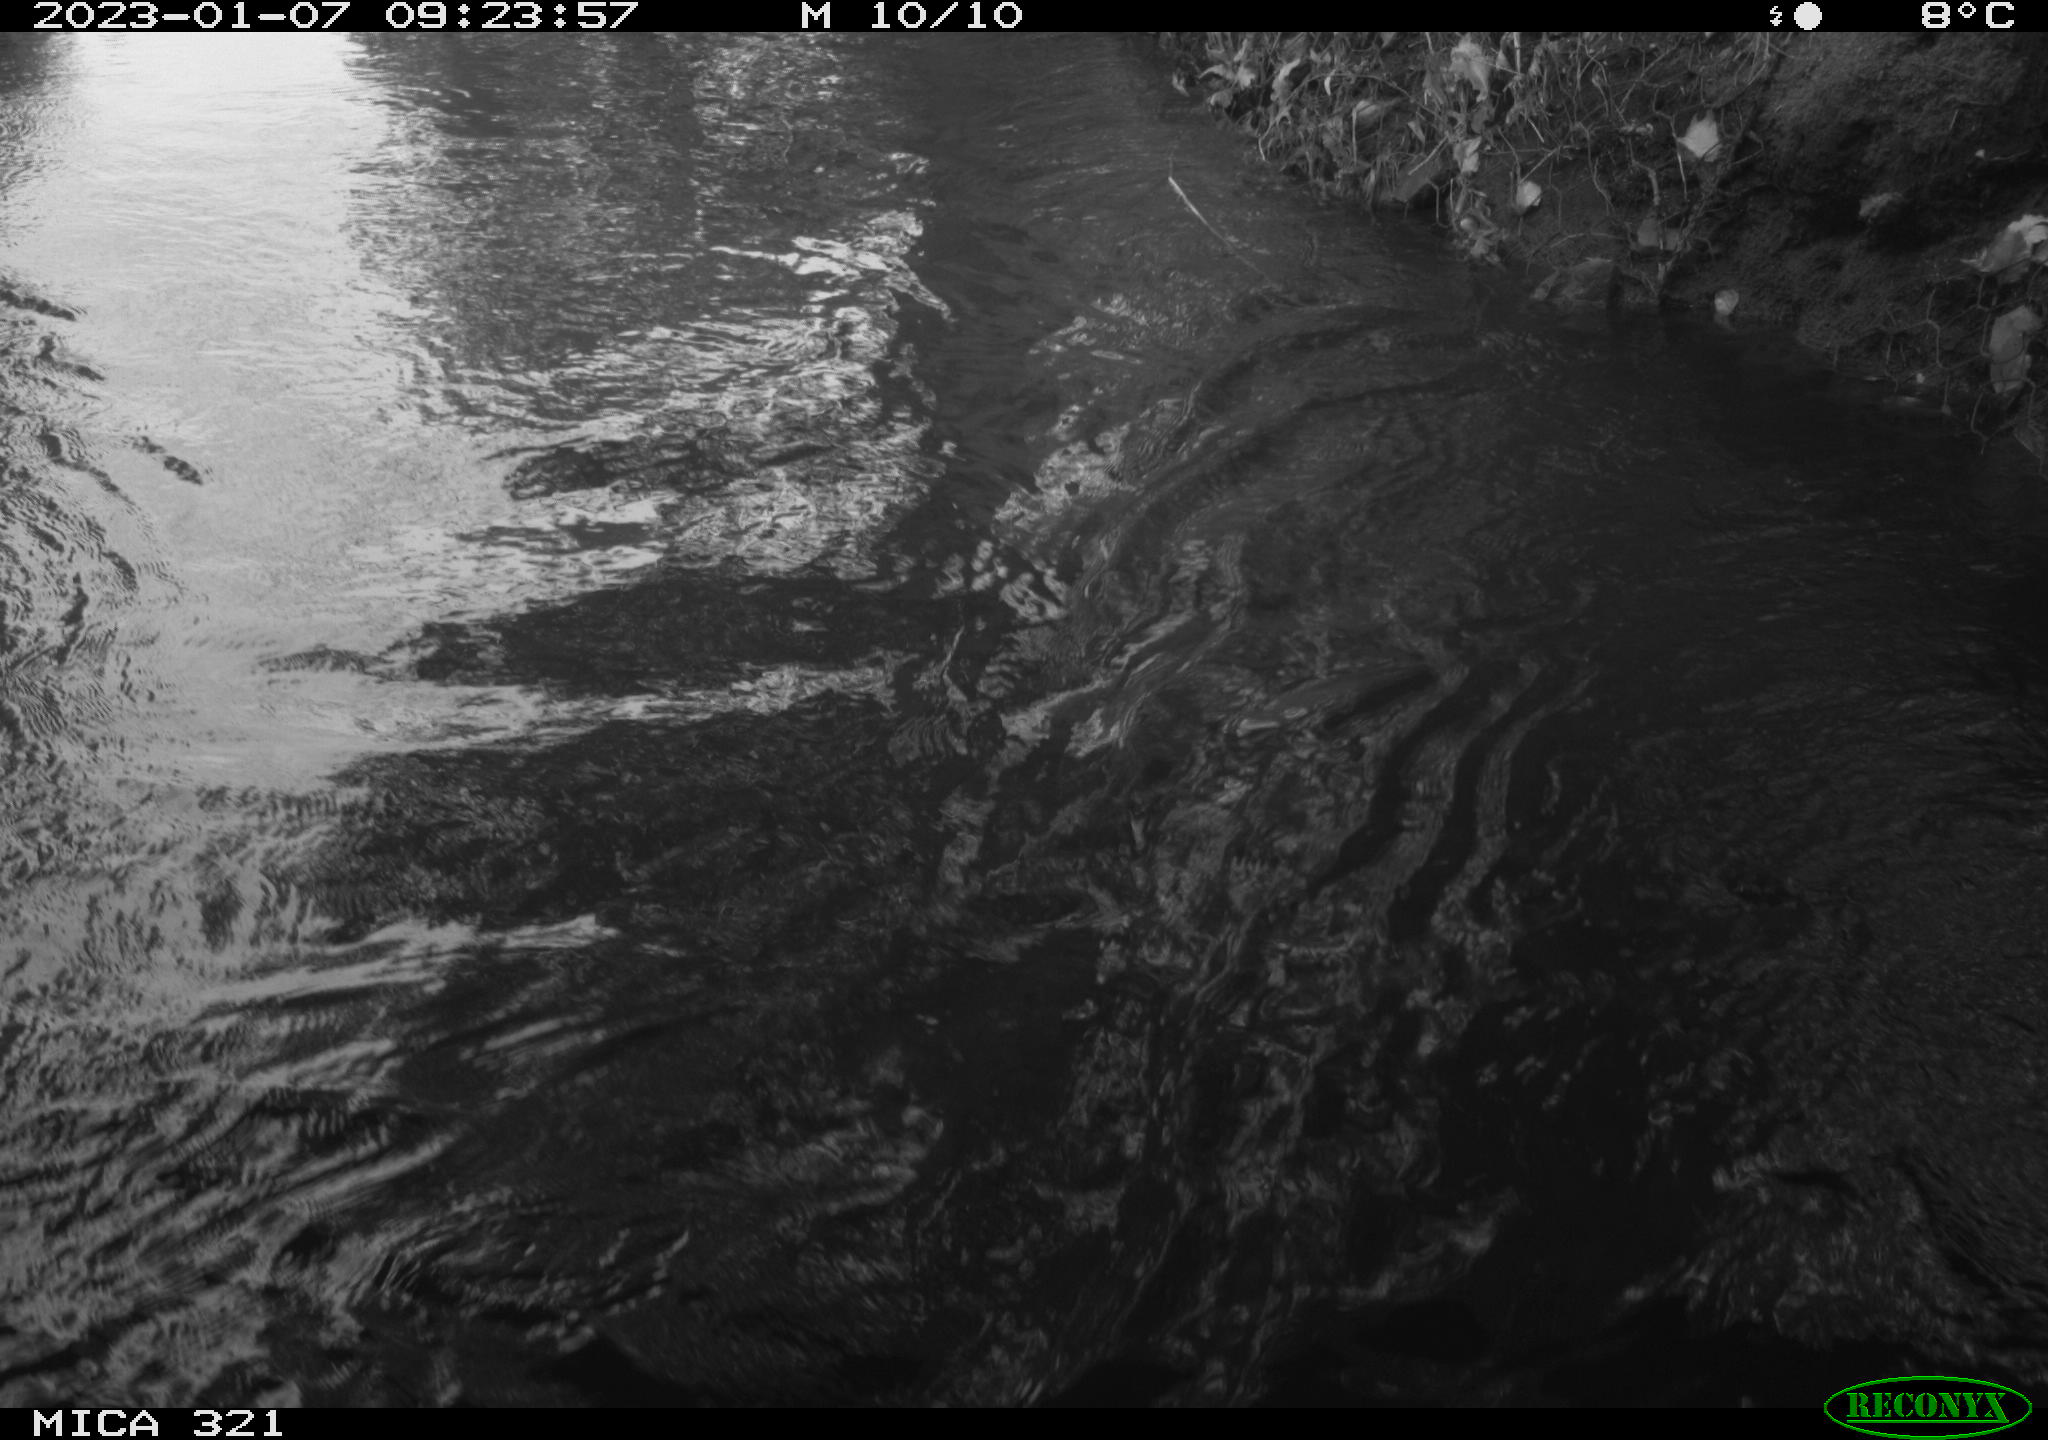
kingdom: Animalia
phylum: Chordata
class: Aves
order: Anseriformes
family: Anatidae
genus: Anas
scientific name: Anas
